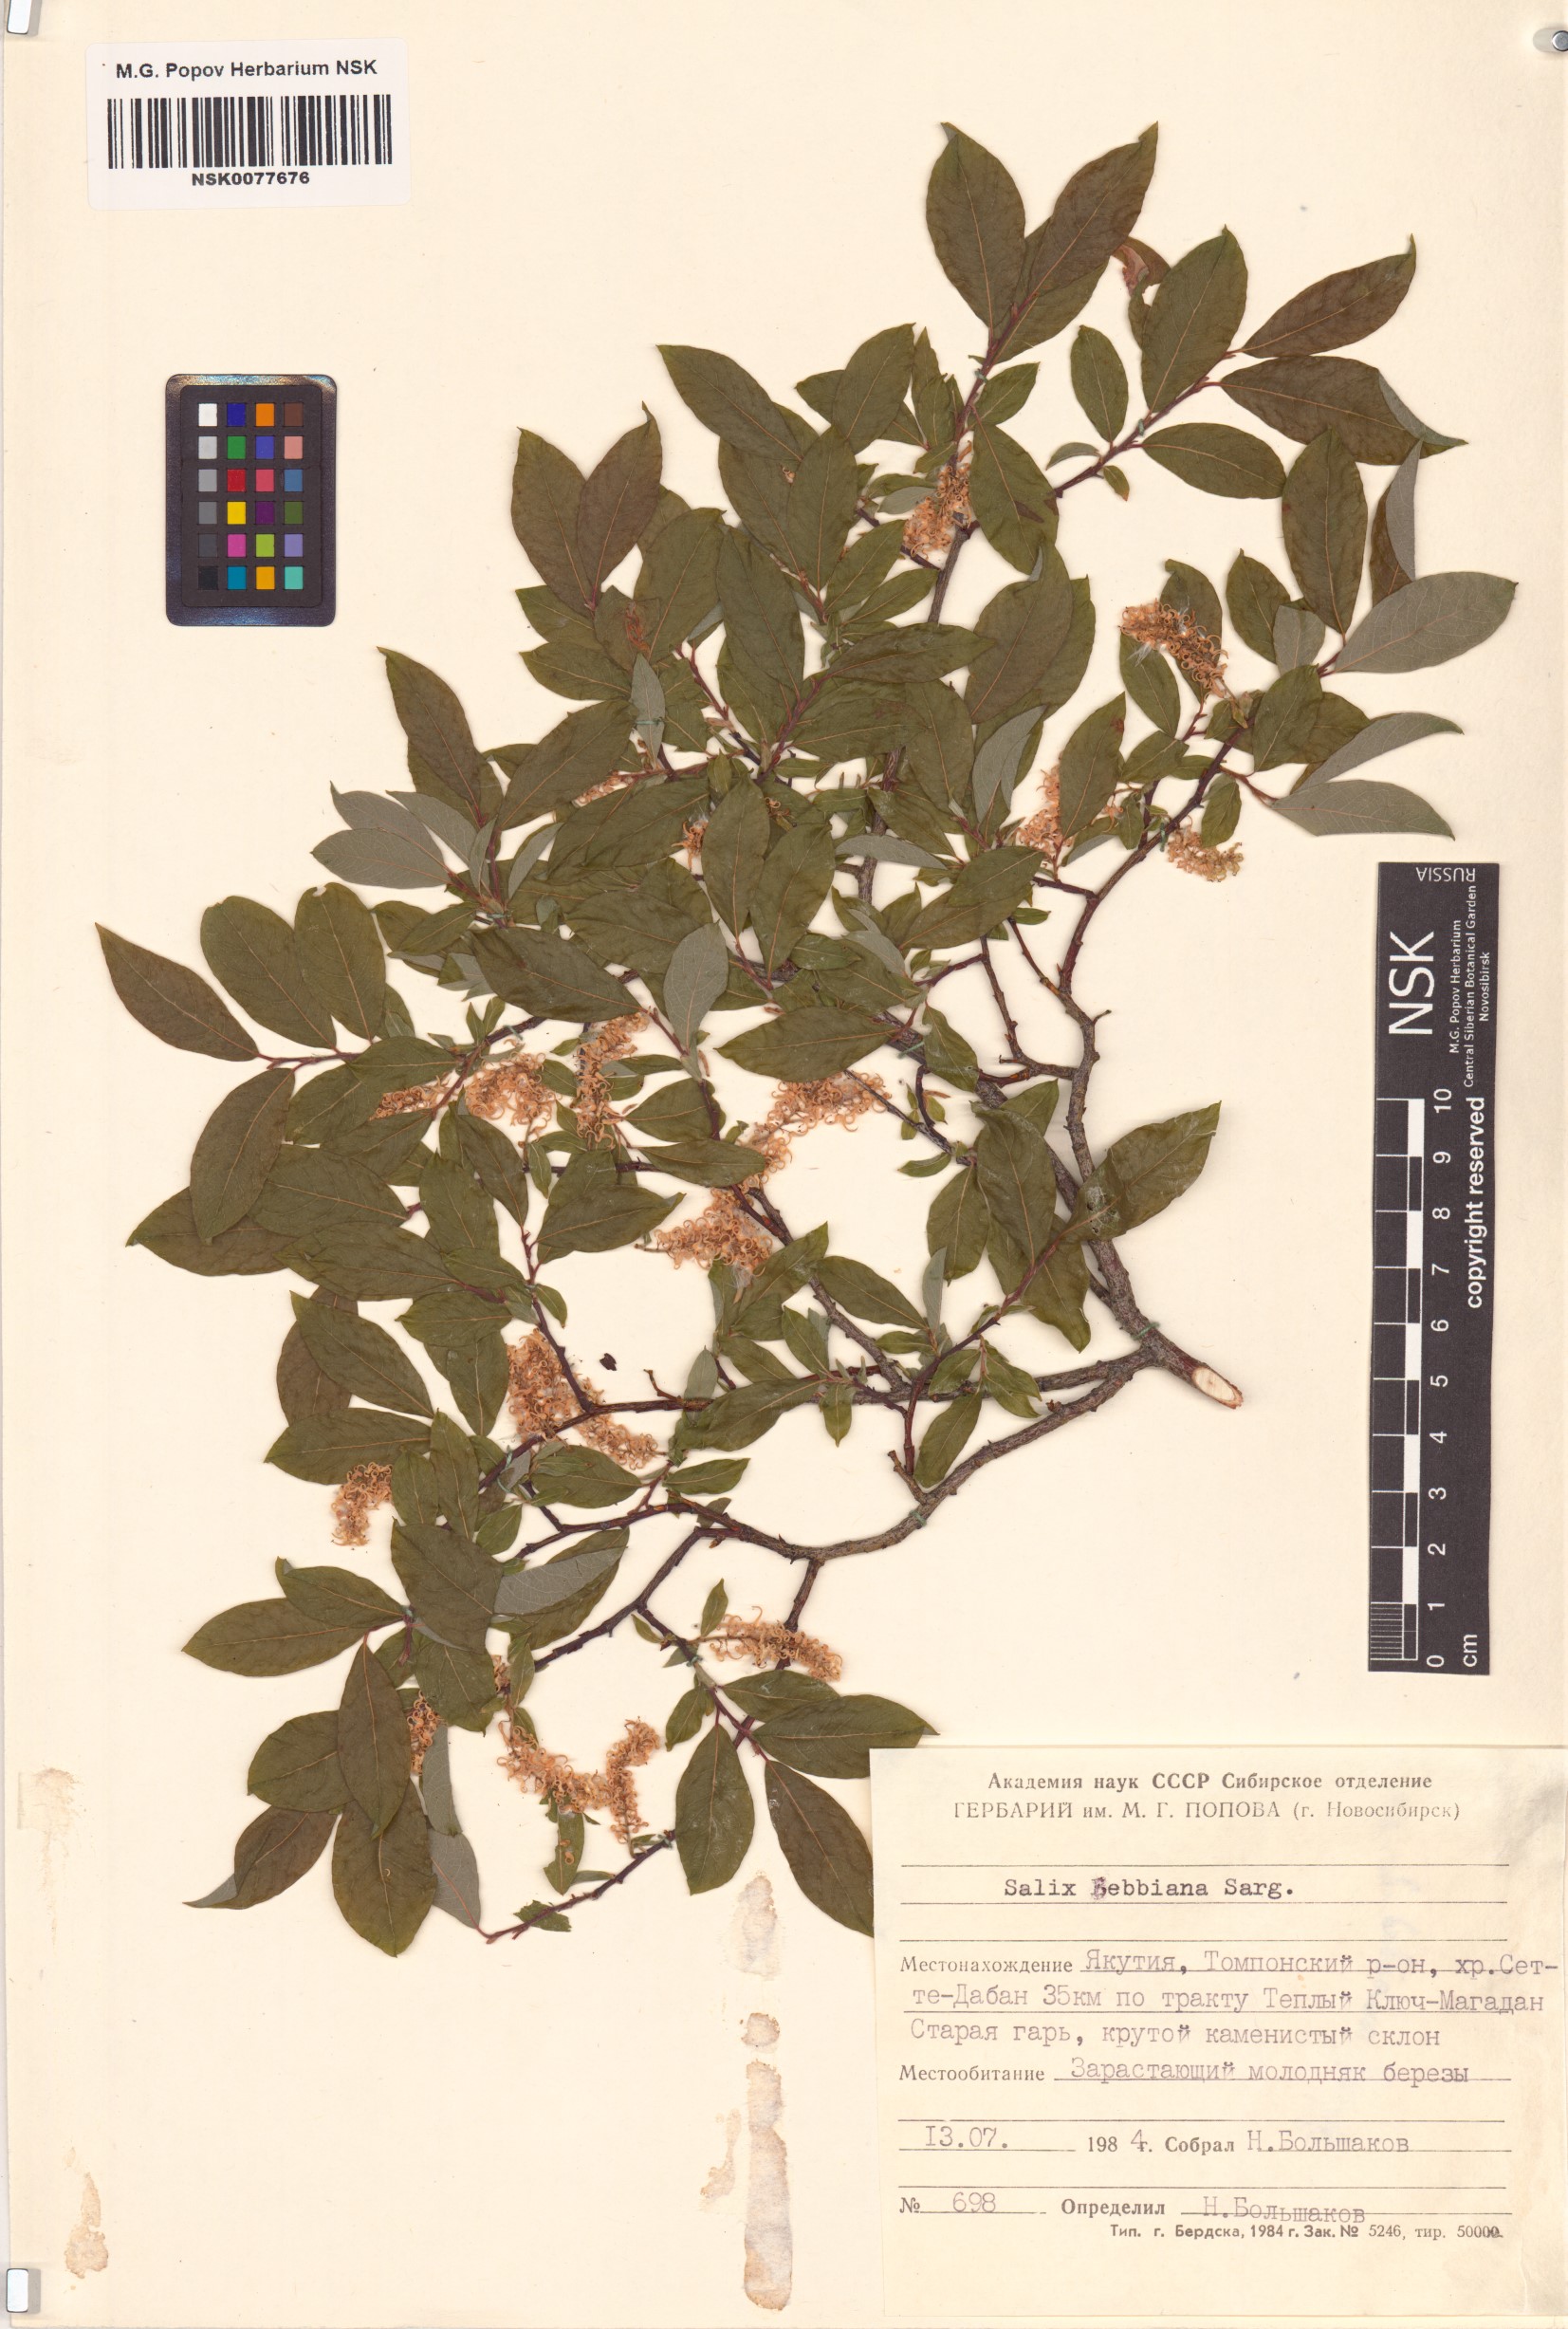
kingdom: Plantae
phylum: Tracheophyta
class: Magnoliopsida
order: Malpighiales
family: Salicaceae
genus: Salix
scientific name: Salix bebbiana
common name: Bebb's willow
